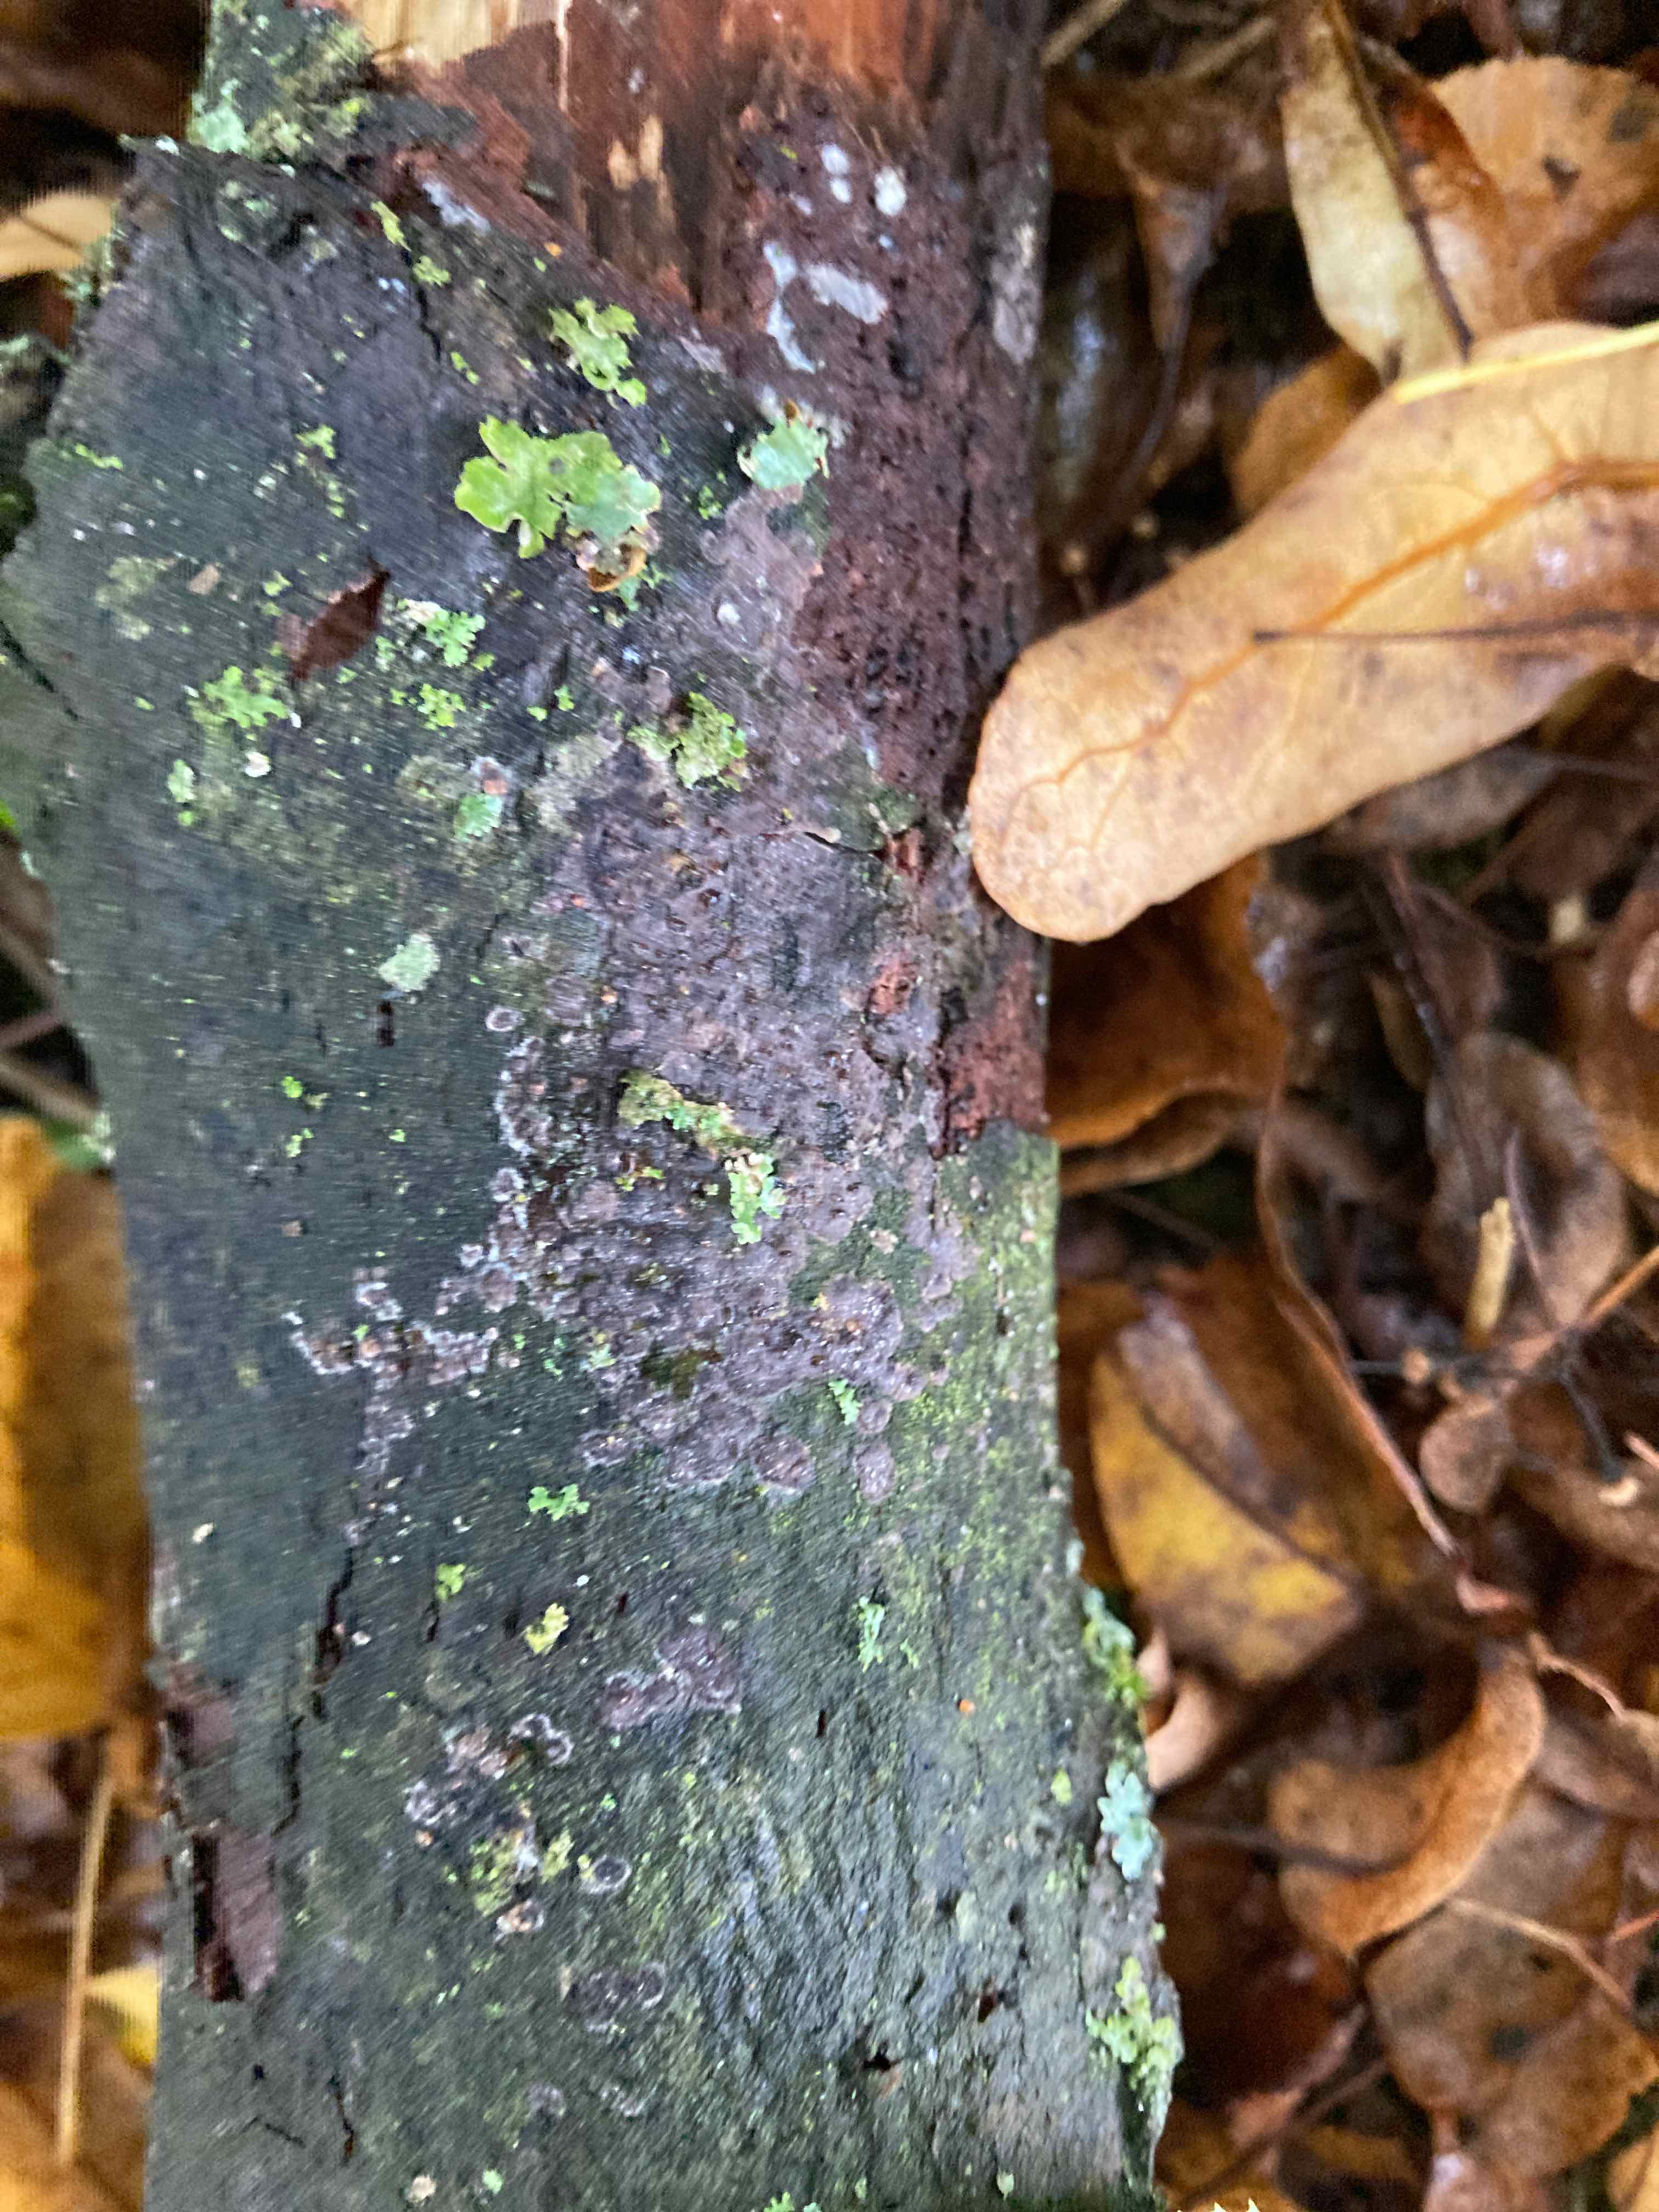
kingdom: Fungi
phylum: Basidiomycota
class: Agaricomycetes
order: Russulales
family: Peniophoraceae
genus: Peniophora
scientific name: Peniophora rufomarginata
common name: linde-voksskind
